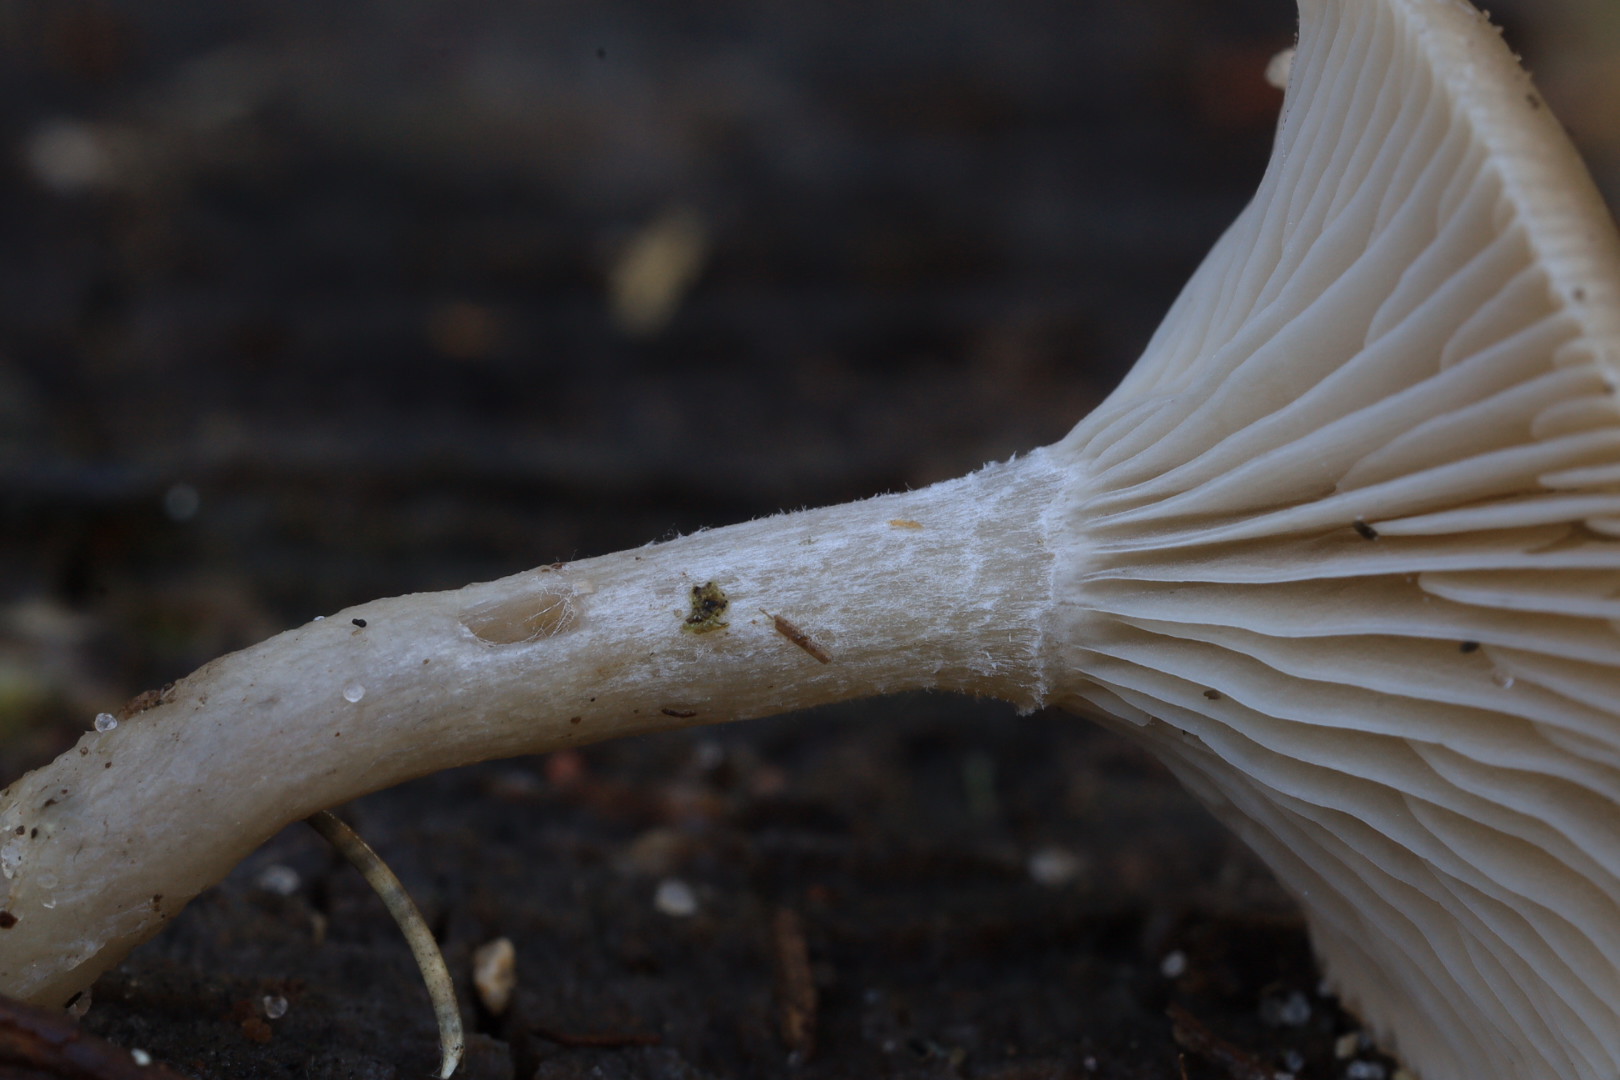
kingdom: Fungi
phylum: Basidiomycota
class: Agaricomycetes
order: Agaricales
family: Tricholomataceae
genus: Clitocybe
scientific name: Clitocybe
